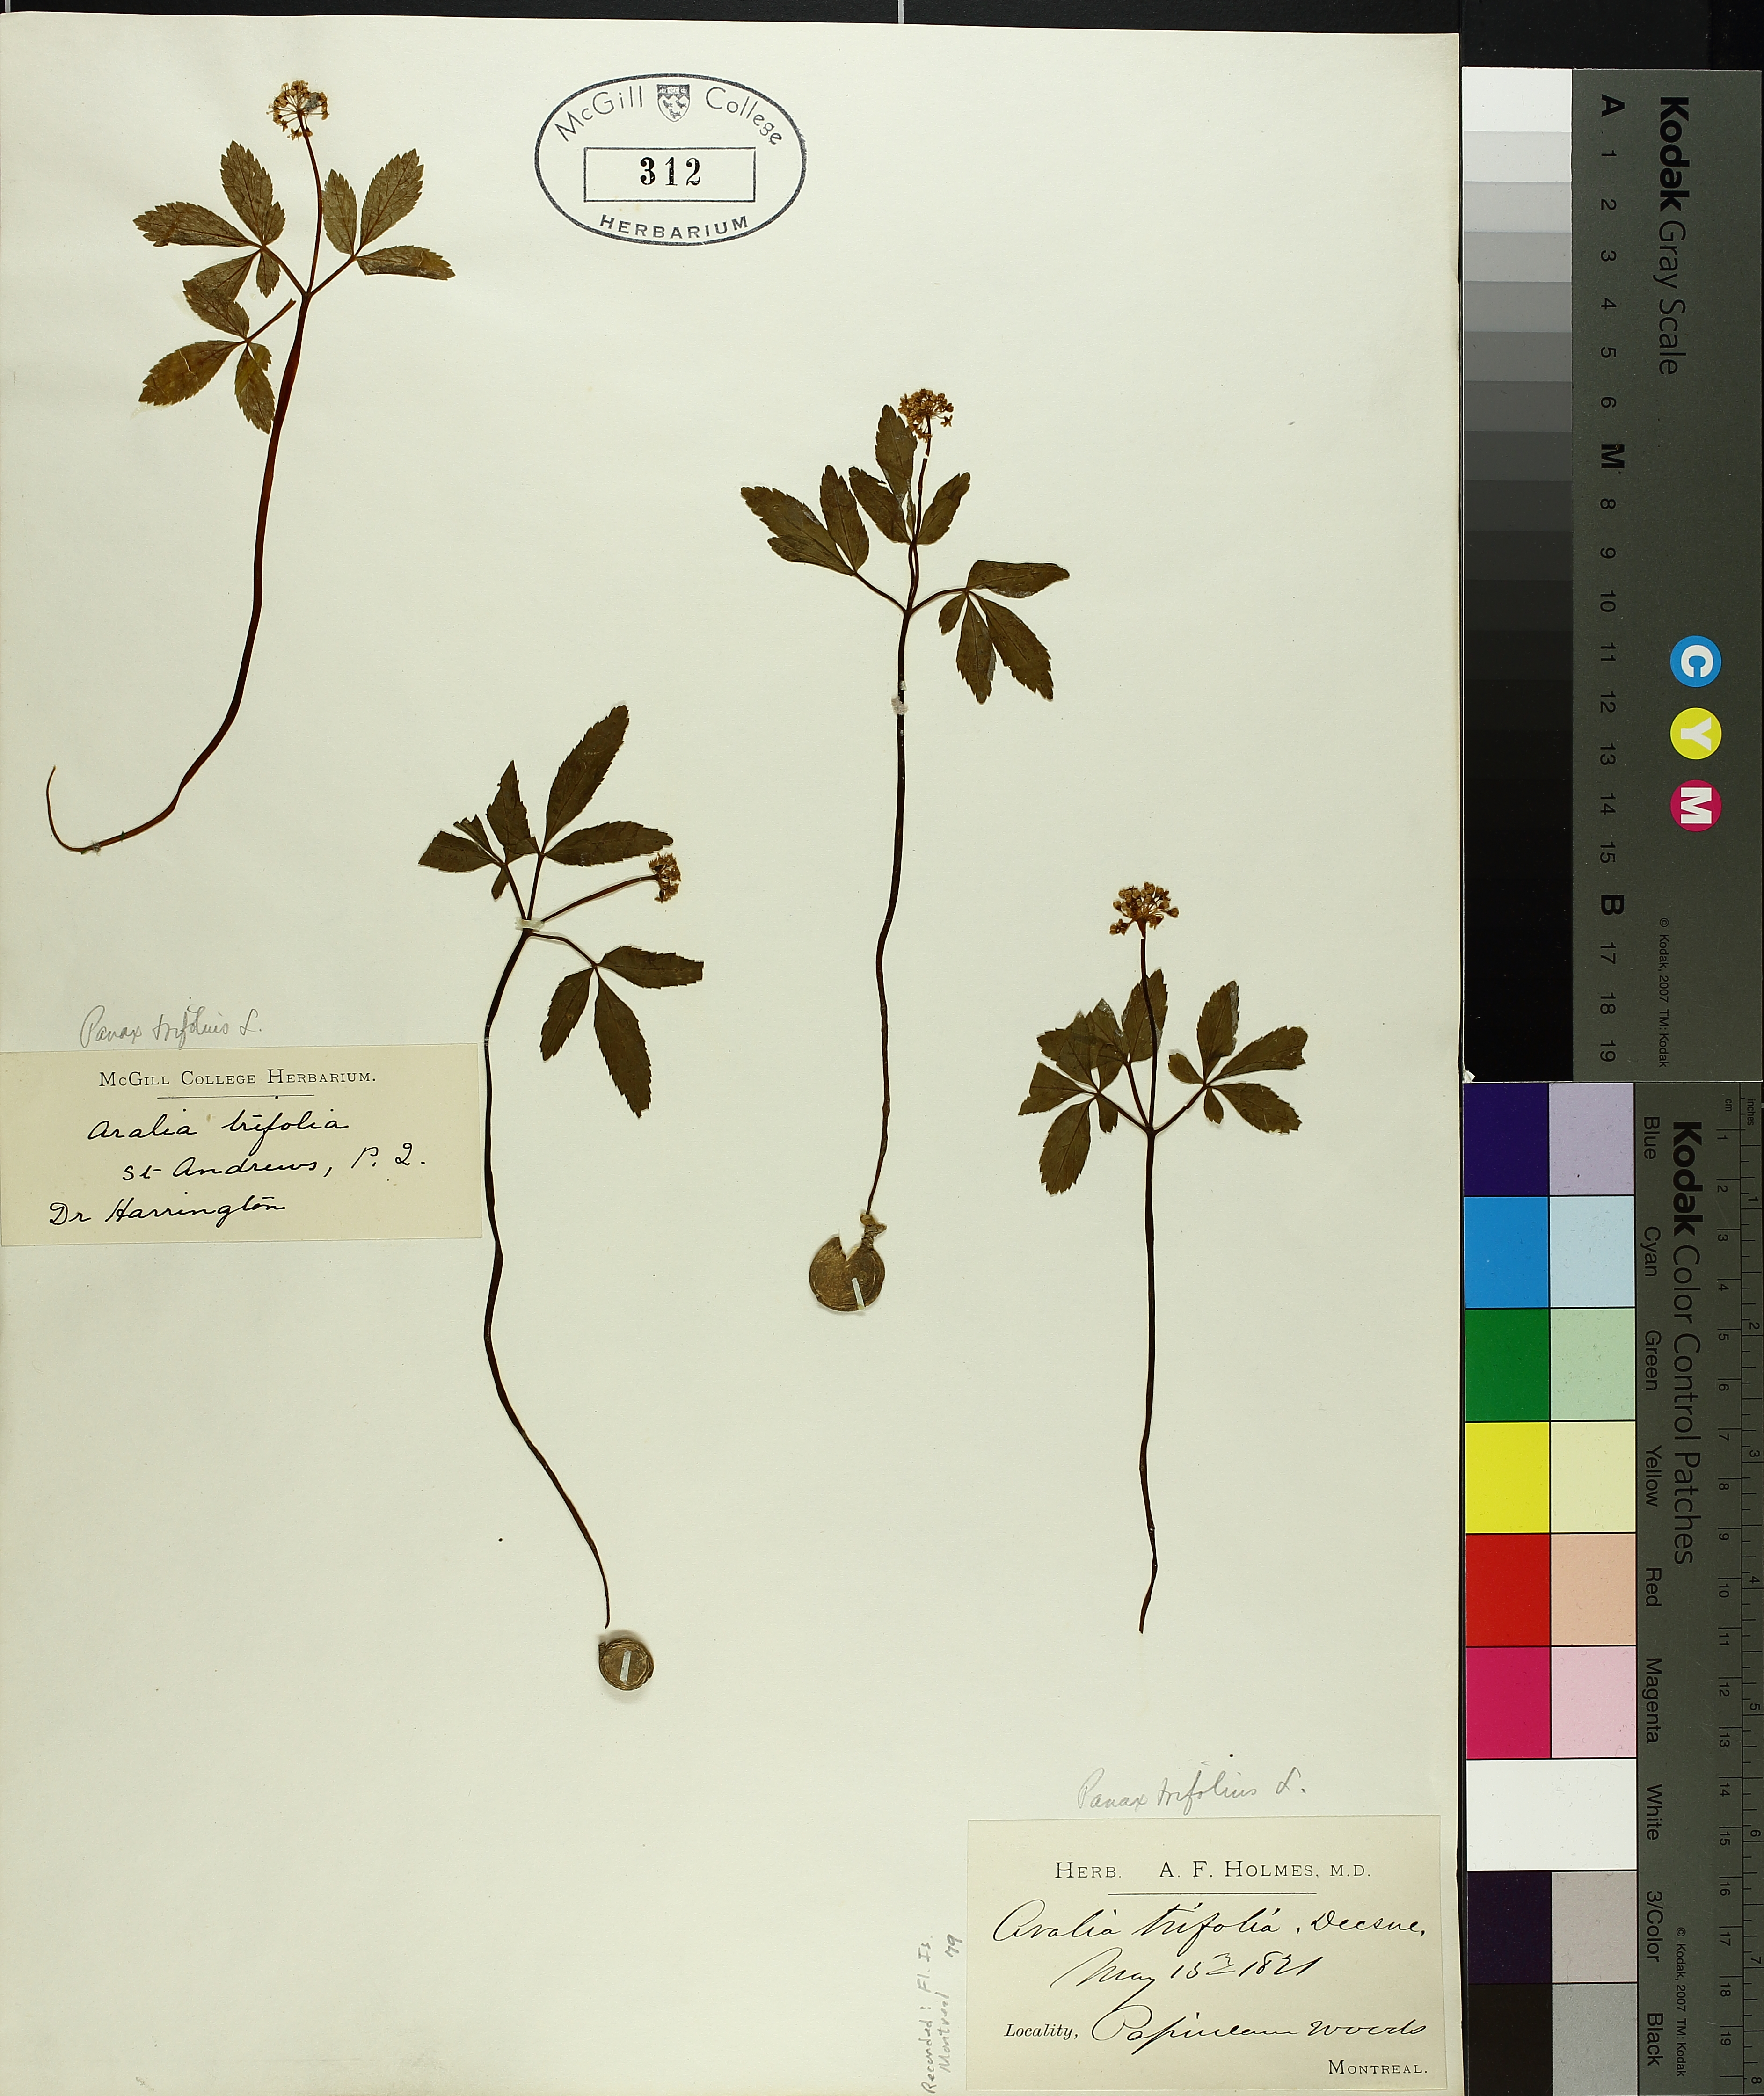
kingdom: Plantae
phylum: Tracheophyta
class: Magnoliopsida
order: Apiales
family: Araliaceae
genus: Panax
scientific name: Panax trifolius
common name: Dwarf ginseng
